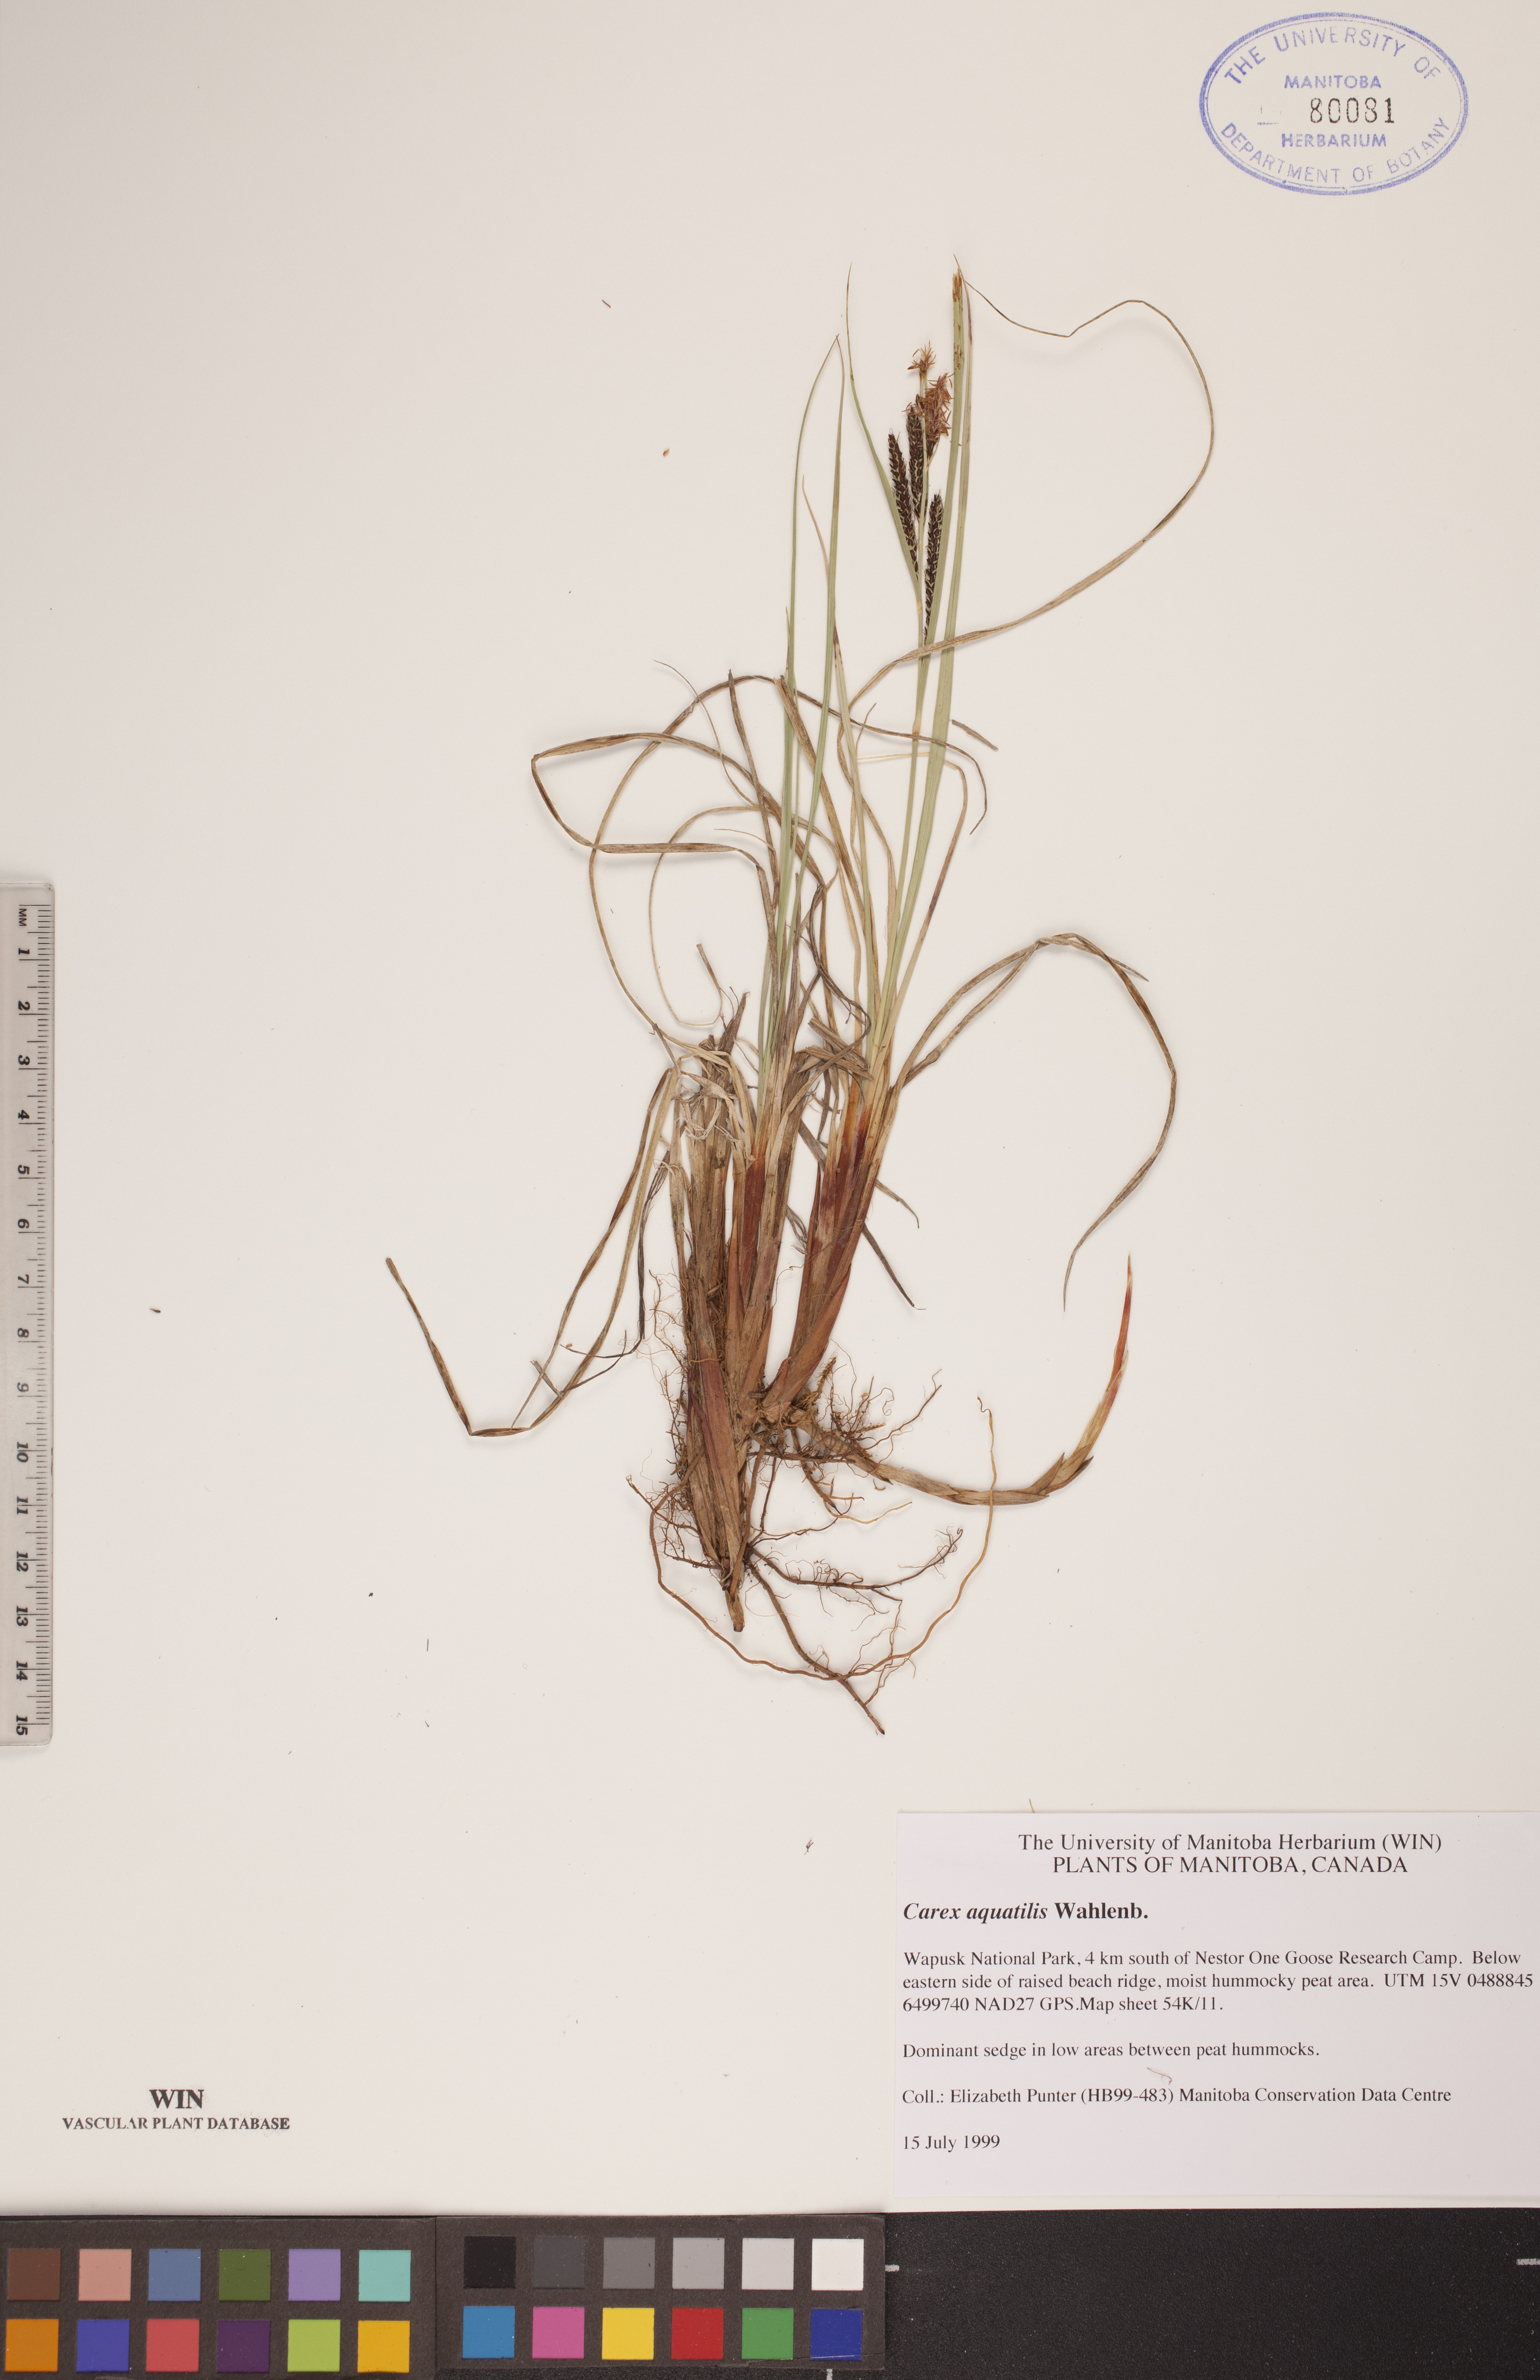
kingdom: Plantae
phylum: Tracheophyta
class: Liliopsida
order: Poales
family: Cyperaceae
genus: Carex
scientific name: Carex aquatilis
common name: Water sedge
